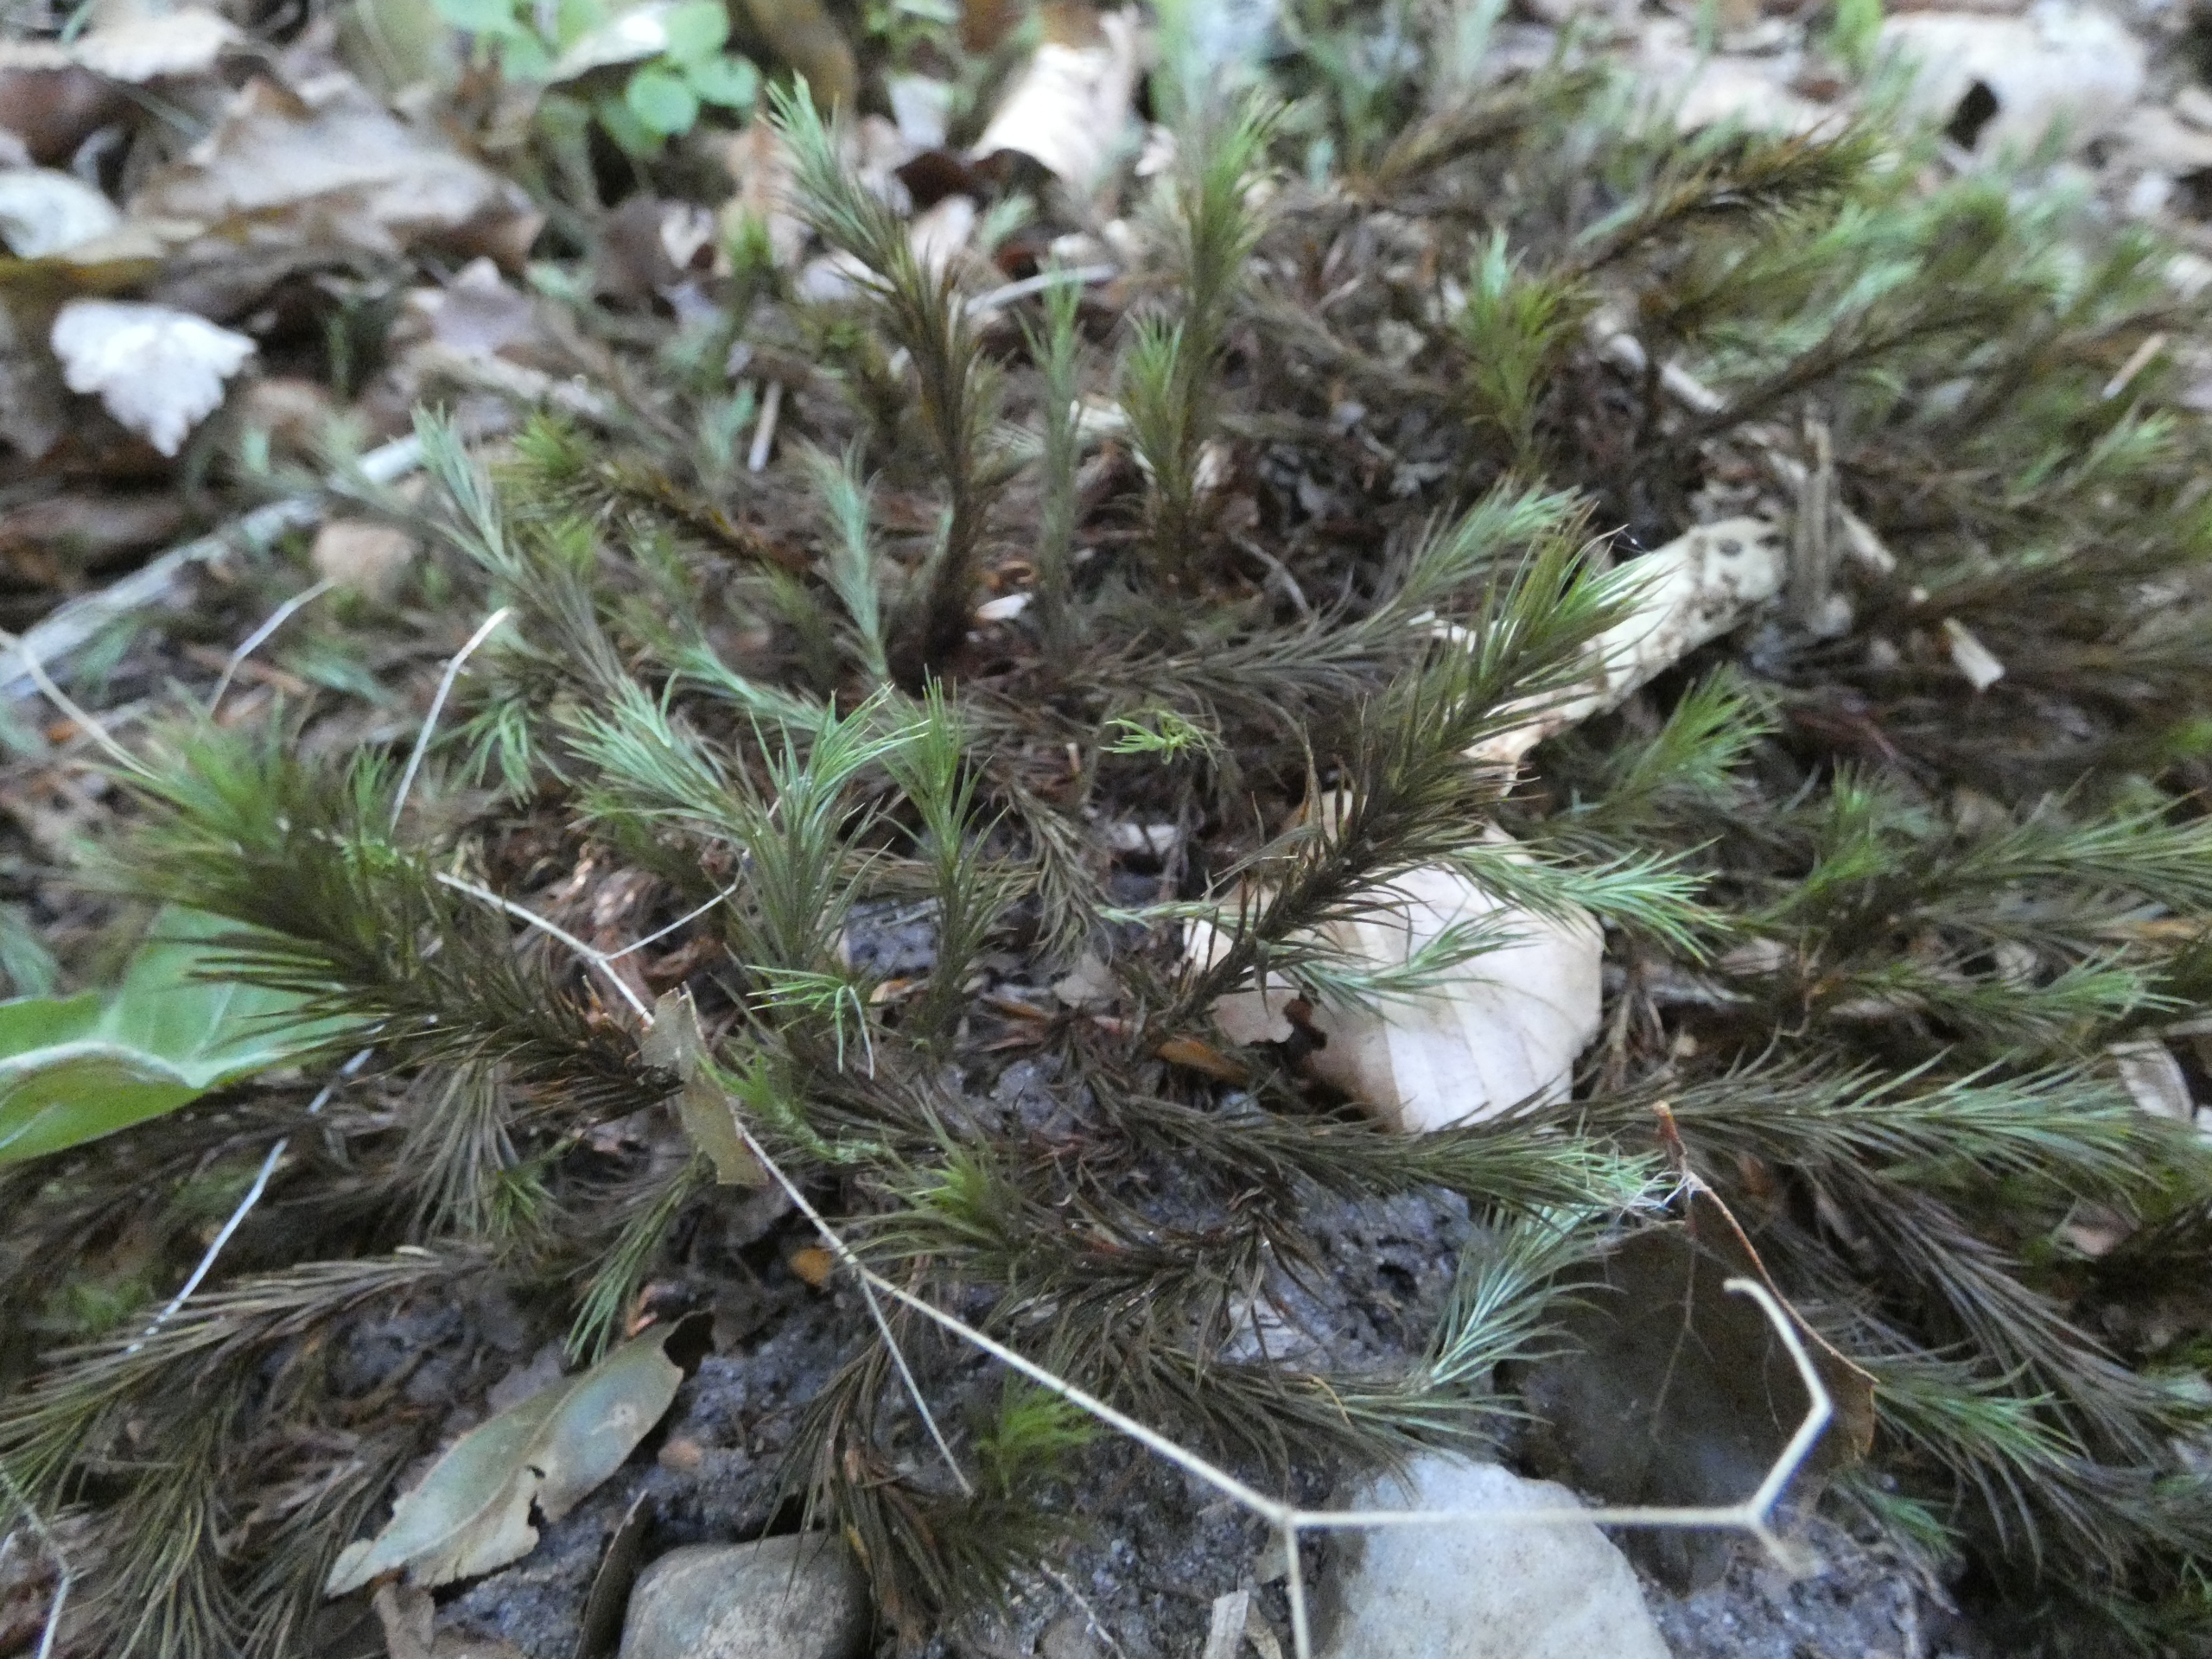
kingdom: Plantae
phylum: Bryophyta
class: Polytrichopsida
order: Polytrichales
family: Polytrichaceae
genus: Polytrichum
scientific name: Polytrichum
